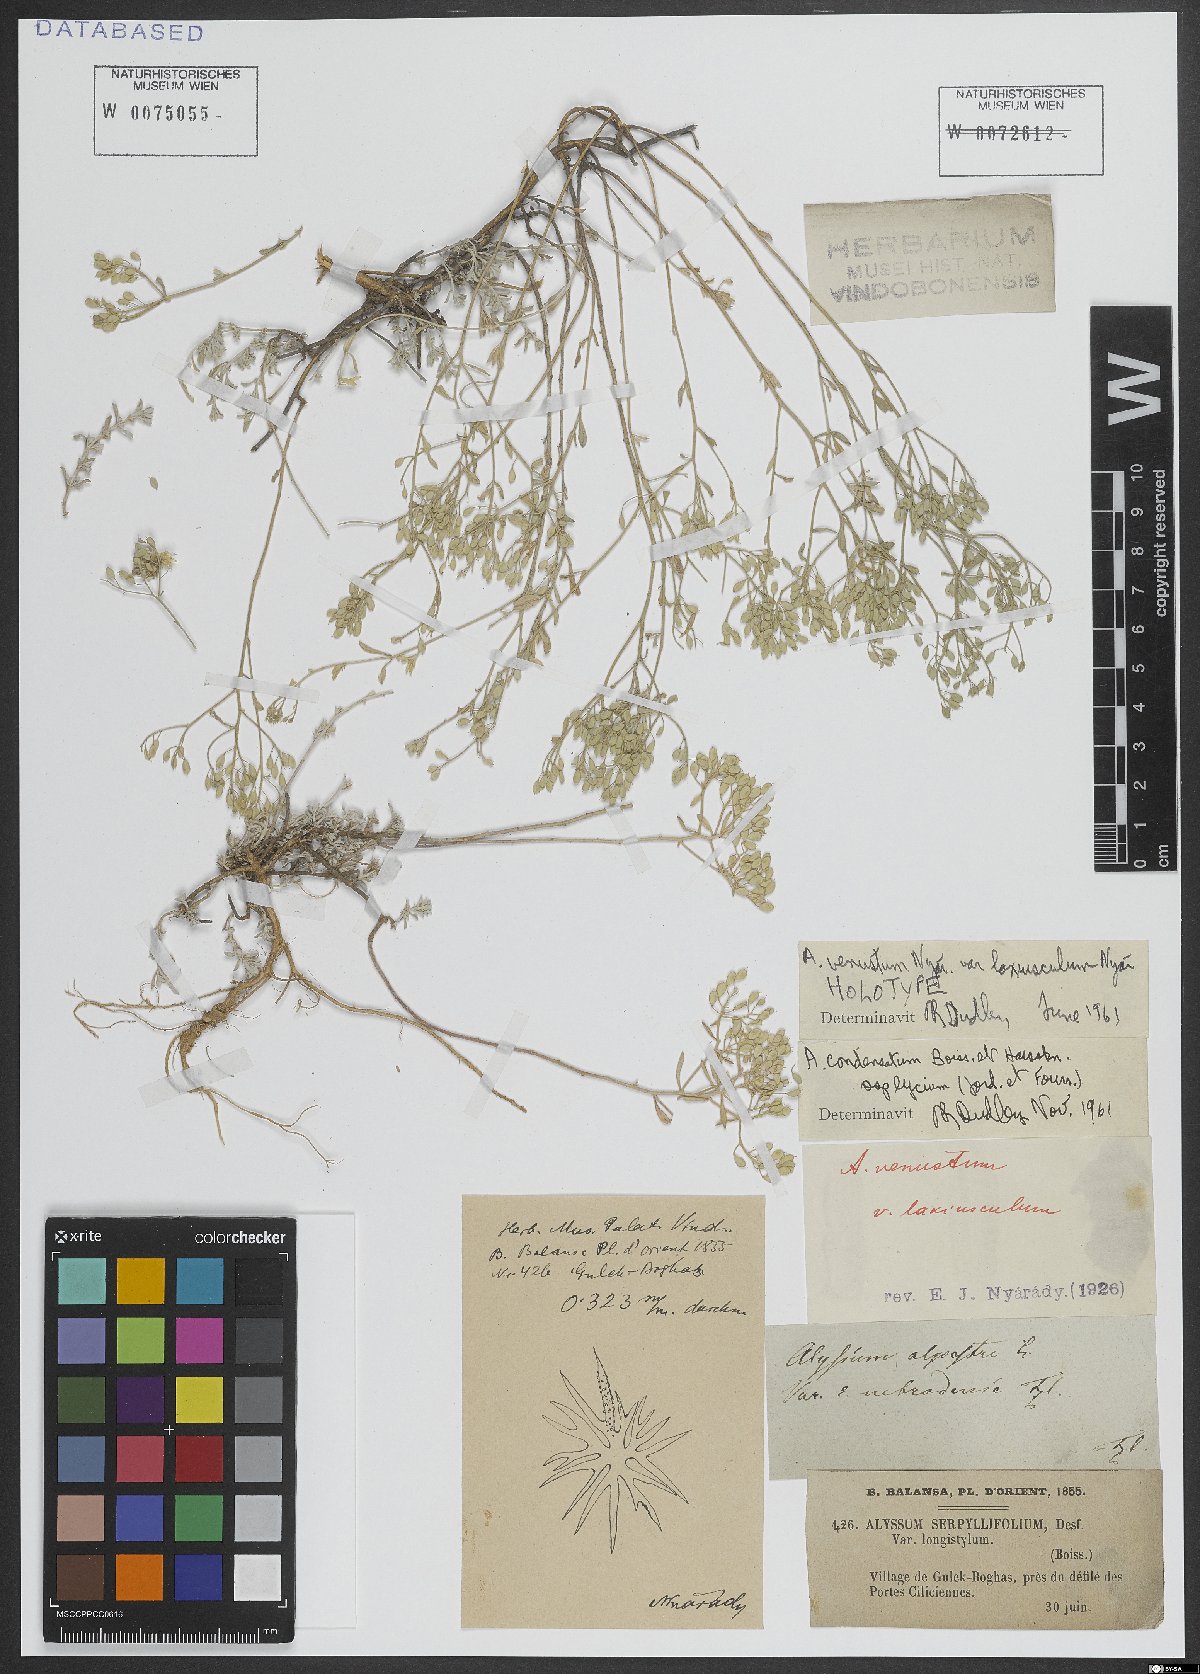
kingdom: Plantae
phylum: Tracheophyta
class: Magnoliopsida
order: Brassicales
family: Brassicaceae
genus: Odontarrhena
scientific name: Odontarrhena condensata
